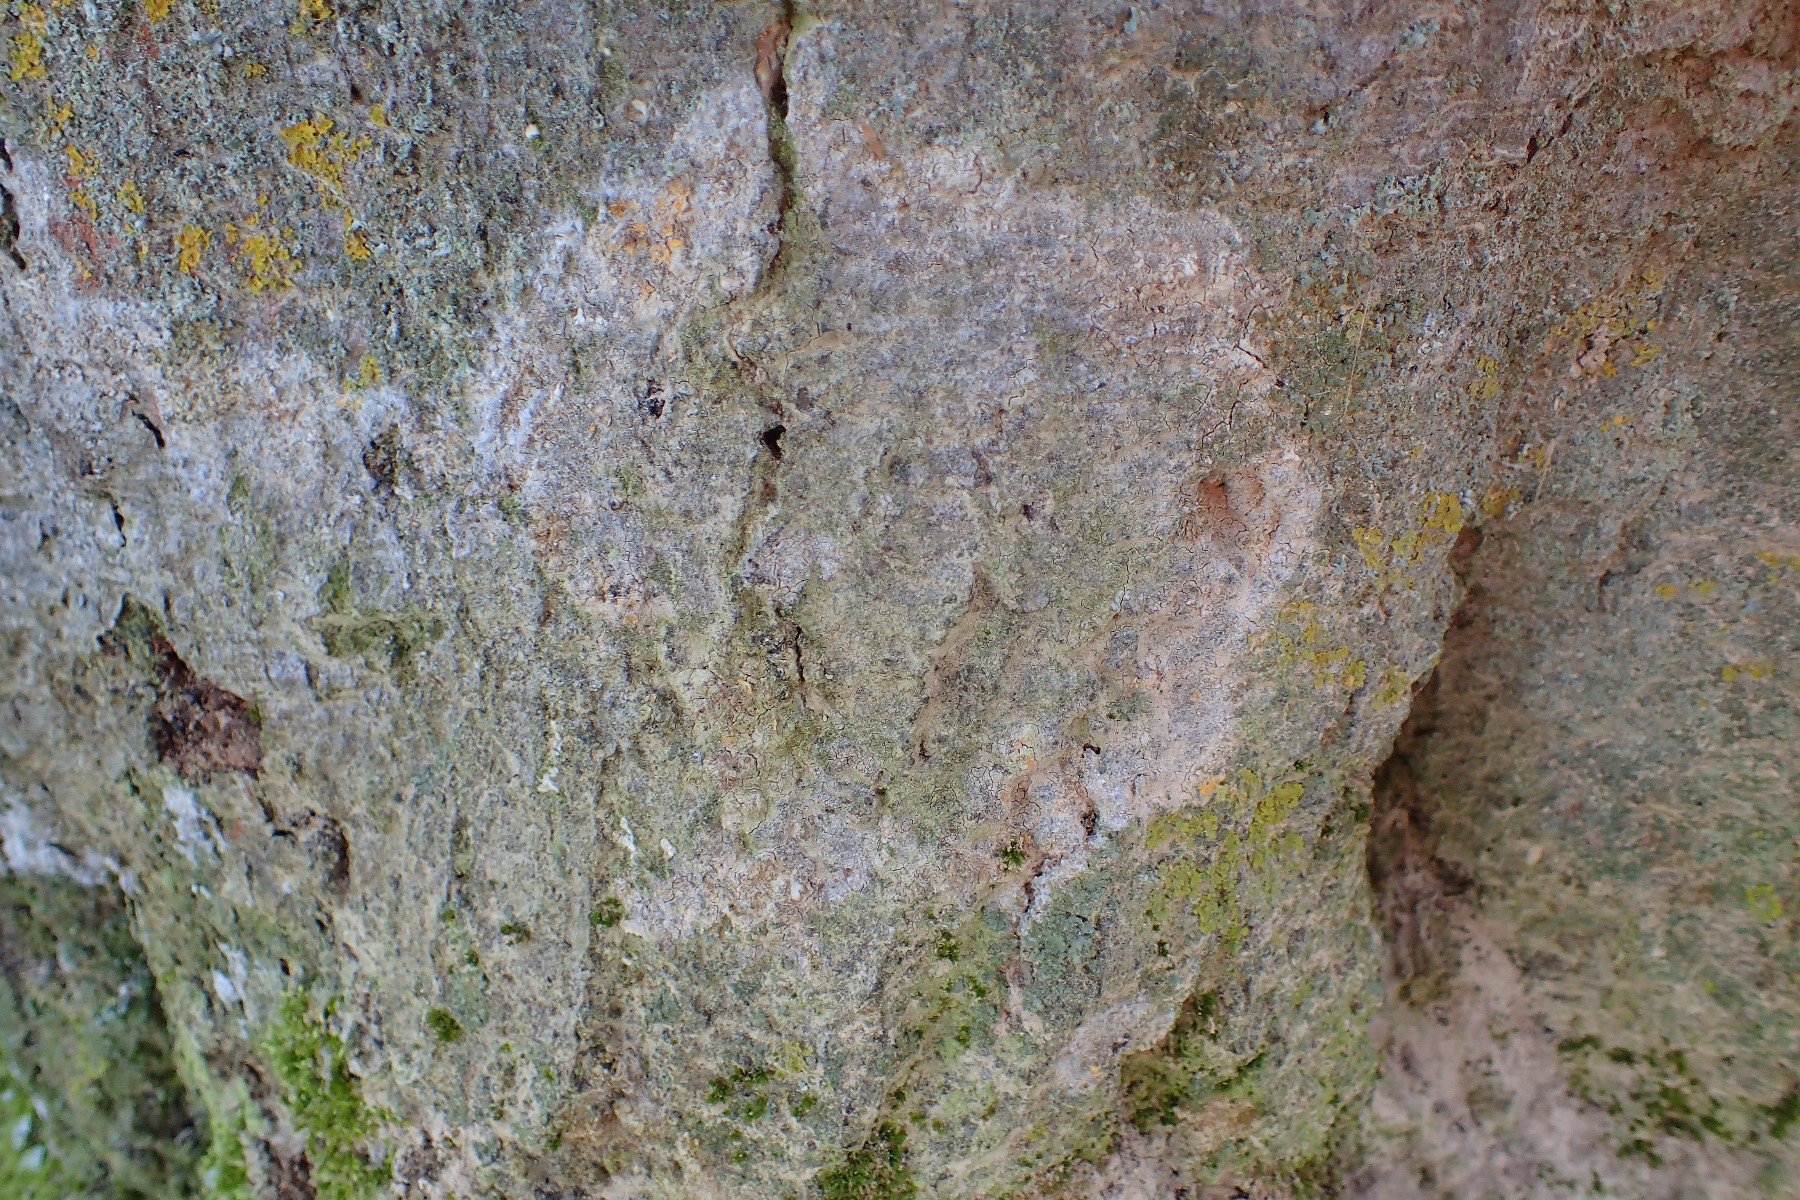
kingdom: Fungi
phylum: Ascomycota
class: Lecanoromycetes
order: Lecanorales
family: Stereocaulaceae
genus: Lepraria
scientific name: Lepraria
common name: støvlav
